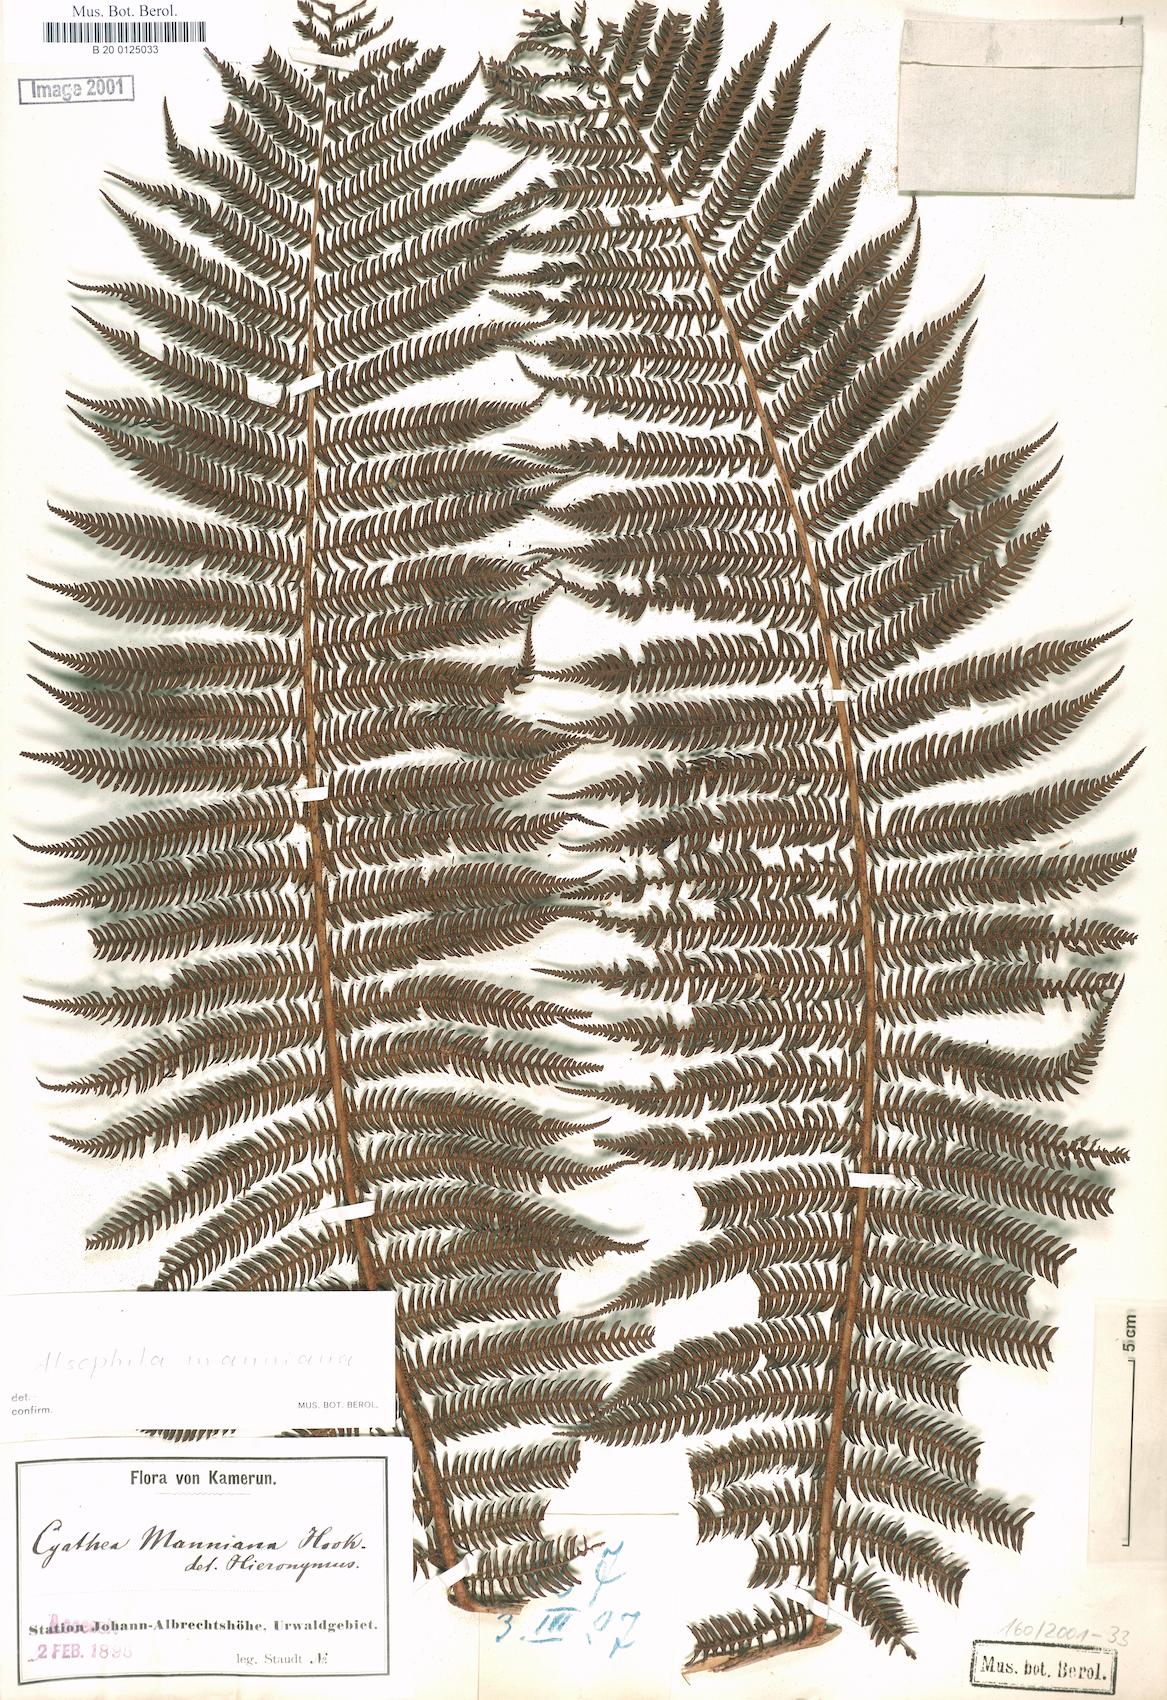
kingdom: Plantae
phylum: Tracheophyta
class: Polypodiopsida
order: Cyatheales
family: Cyatheaceae
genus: Alsophila
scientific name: Alsophila manniana
